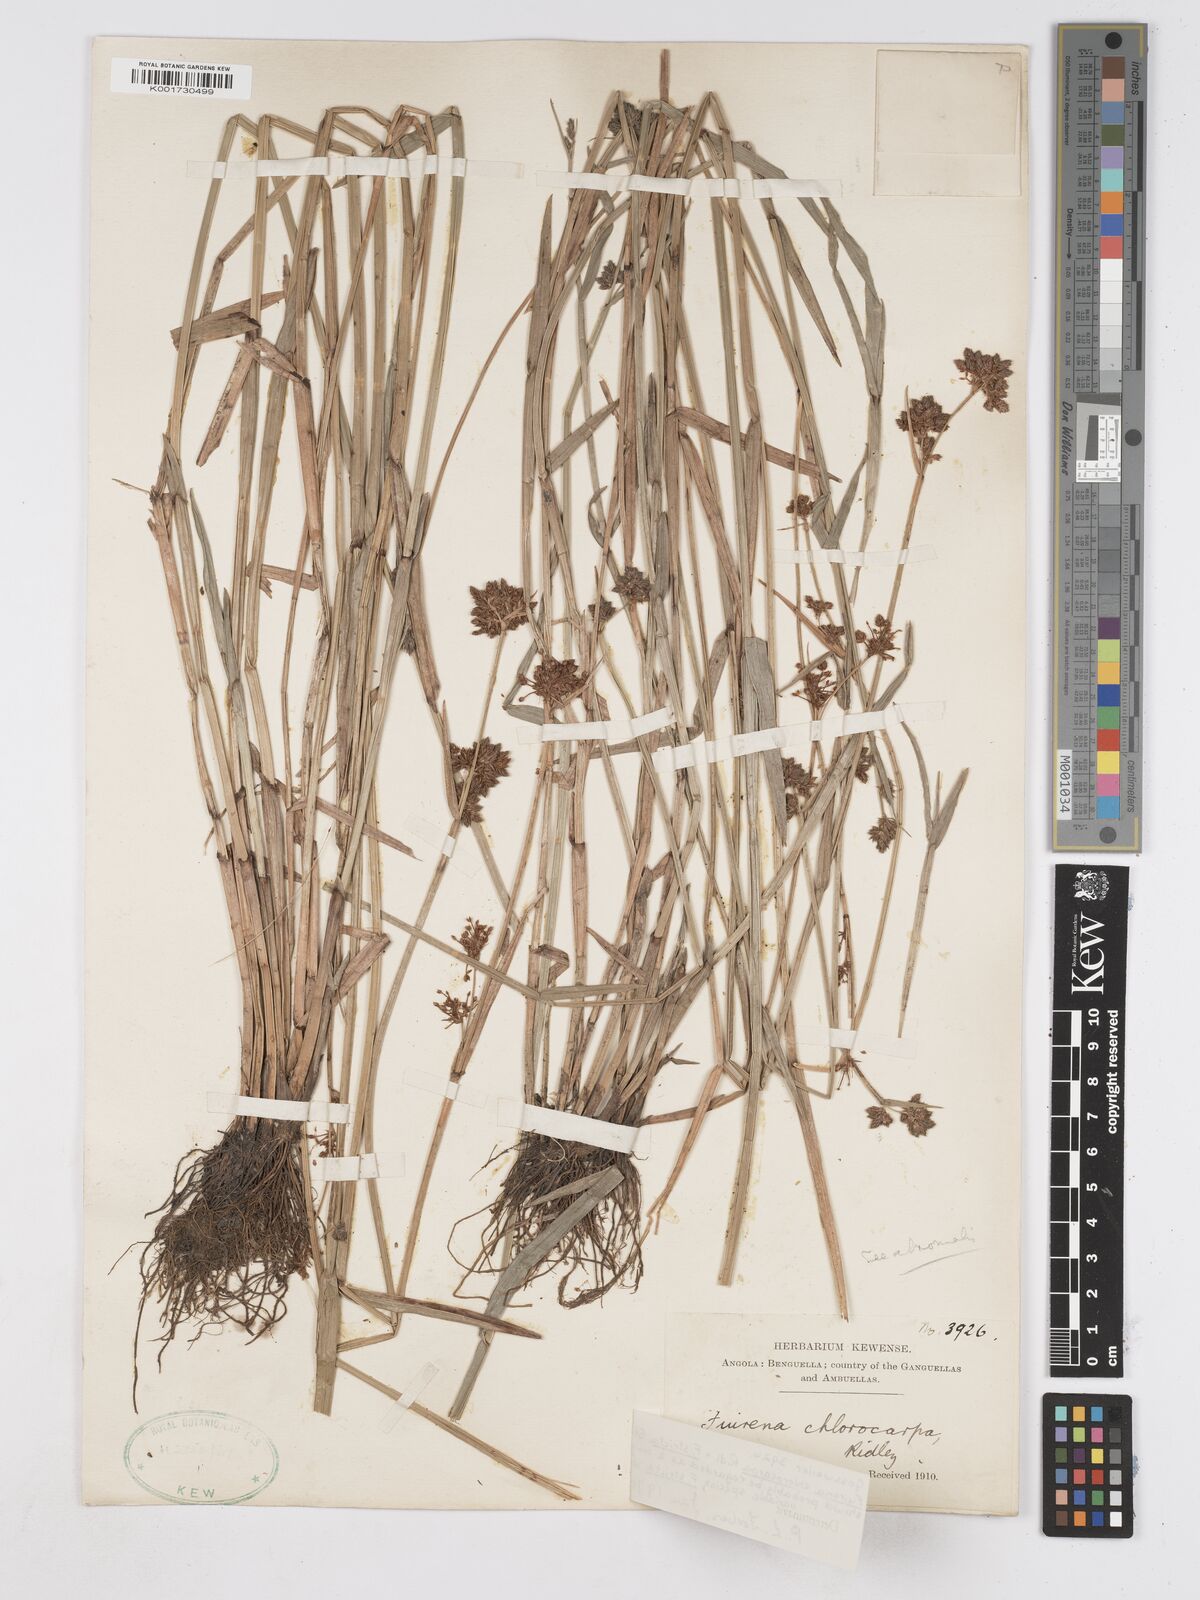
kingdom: Plantae
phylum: Tracheophyta
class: Liliopsida
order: Poales
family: Cyperaceae
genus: Fuirena
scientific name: Fuirena stricta
